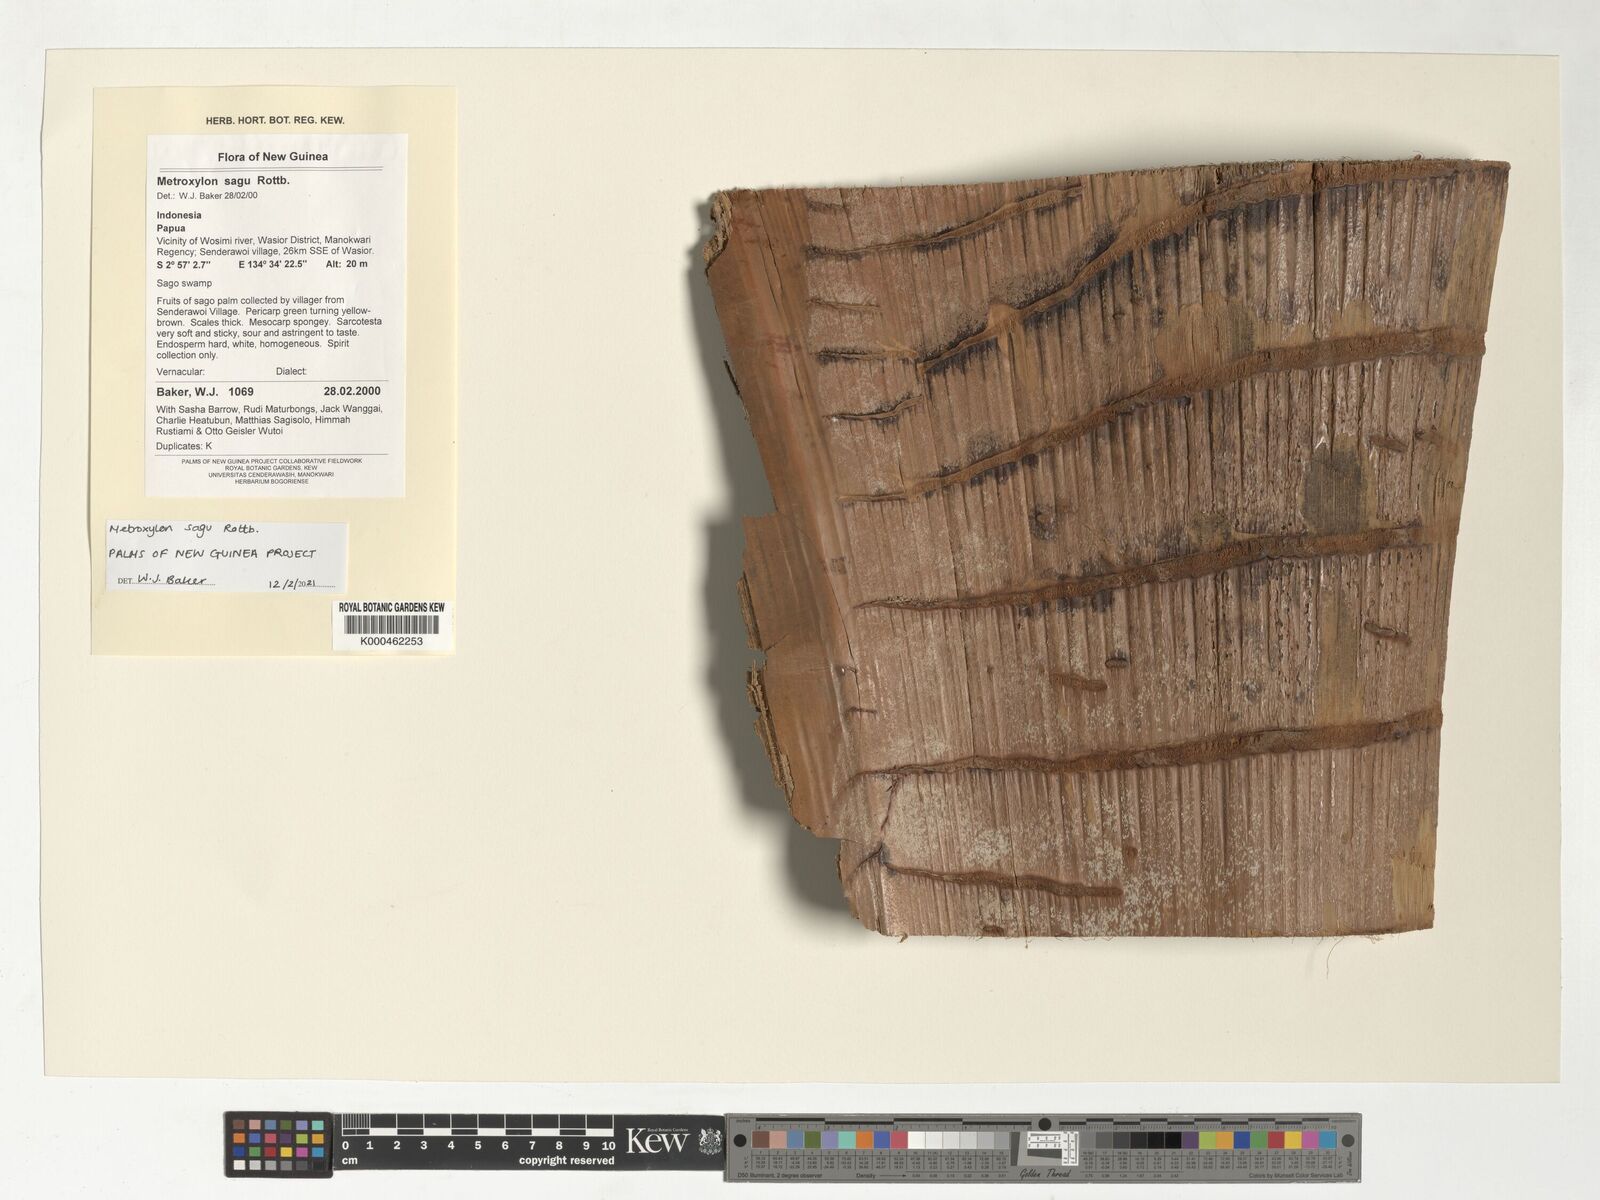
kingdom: Plantae
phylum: Tracheophyta
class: Liliopsida
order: Arecales
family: Arecaceae
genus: Metroxylon
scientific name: Metroxylon sagu
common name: Sago palm
